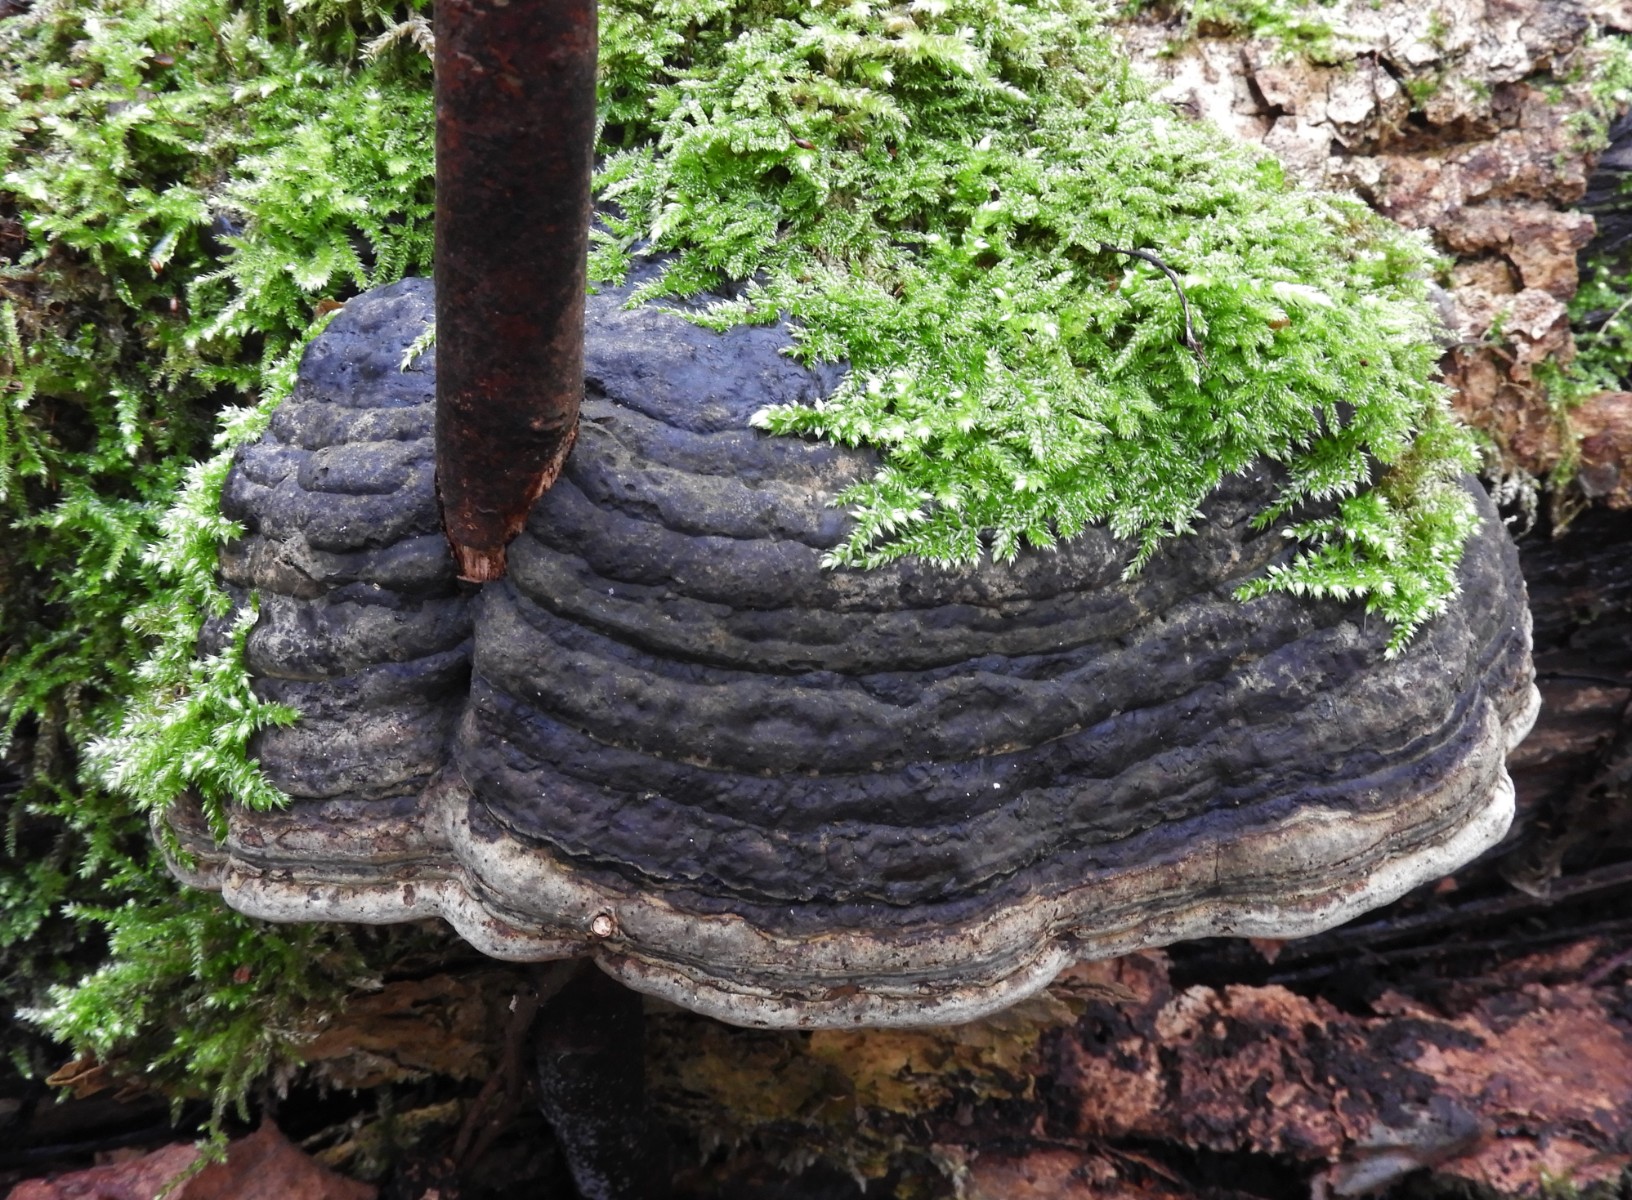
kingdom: Fungi
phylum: Basidiomycota
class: Agaricomycetes
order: Polyporales
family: Polyporaceae
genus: Fomes
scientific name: Fomes fomentarius
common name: tøndersvamp
